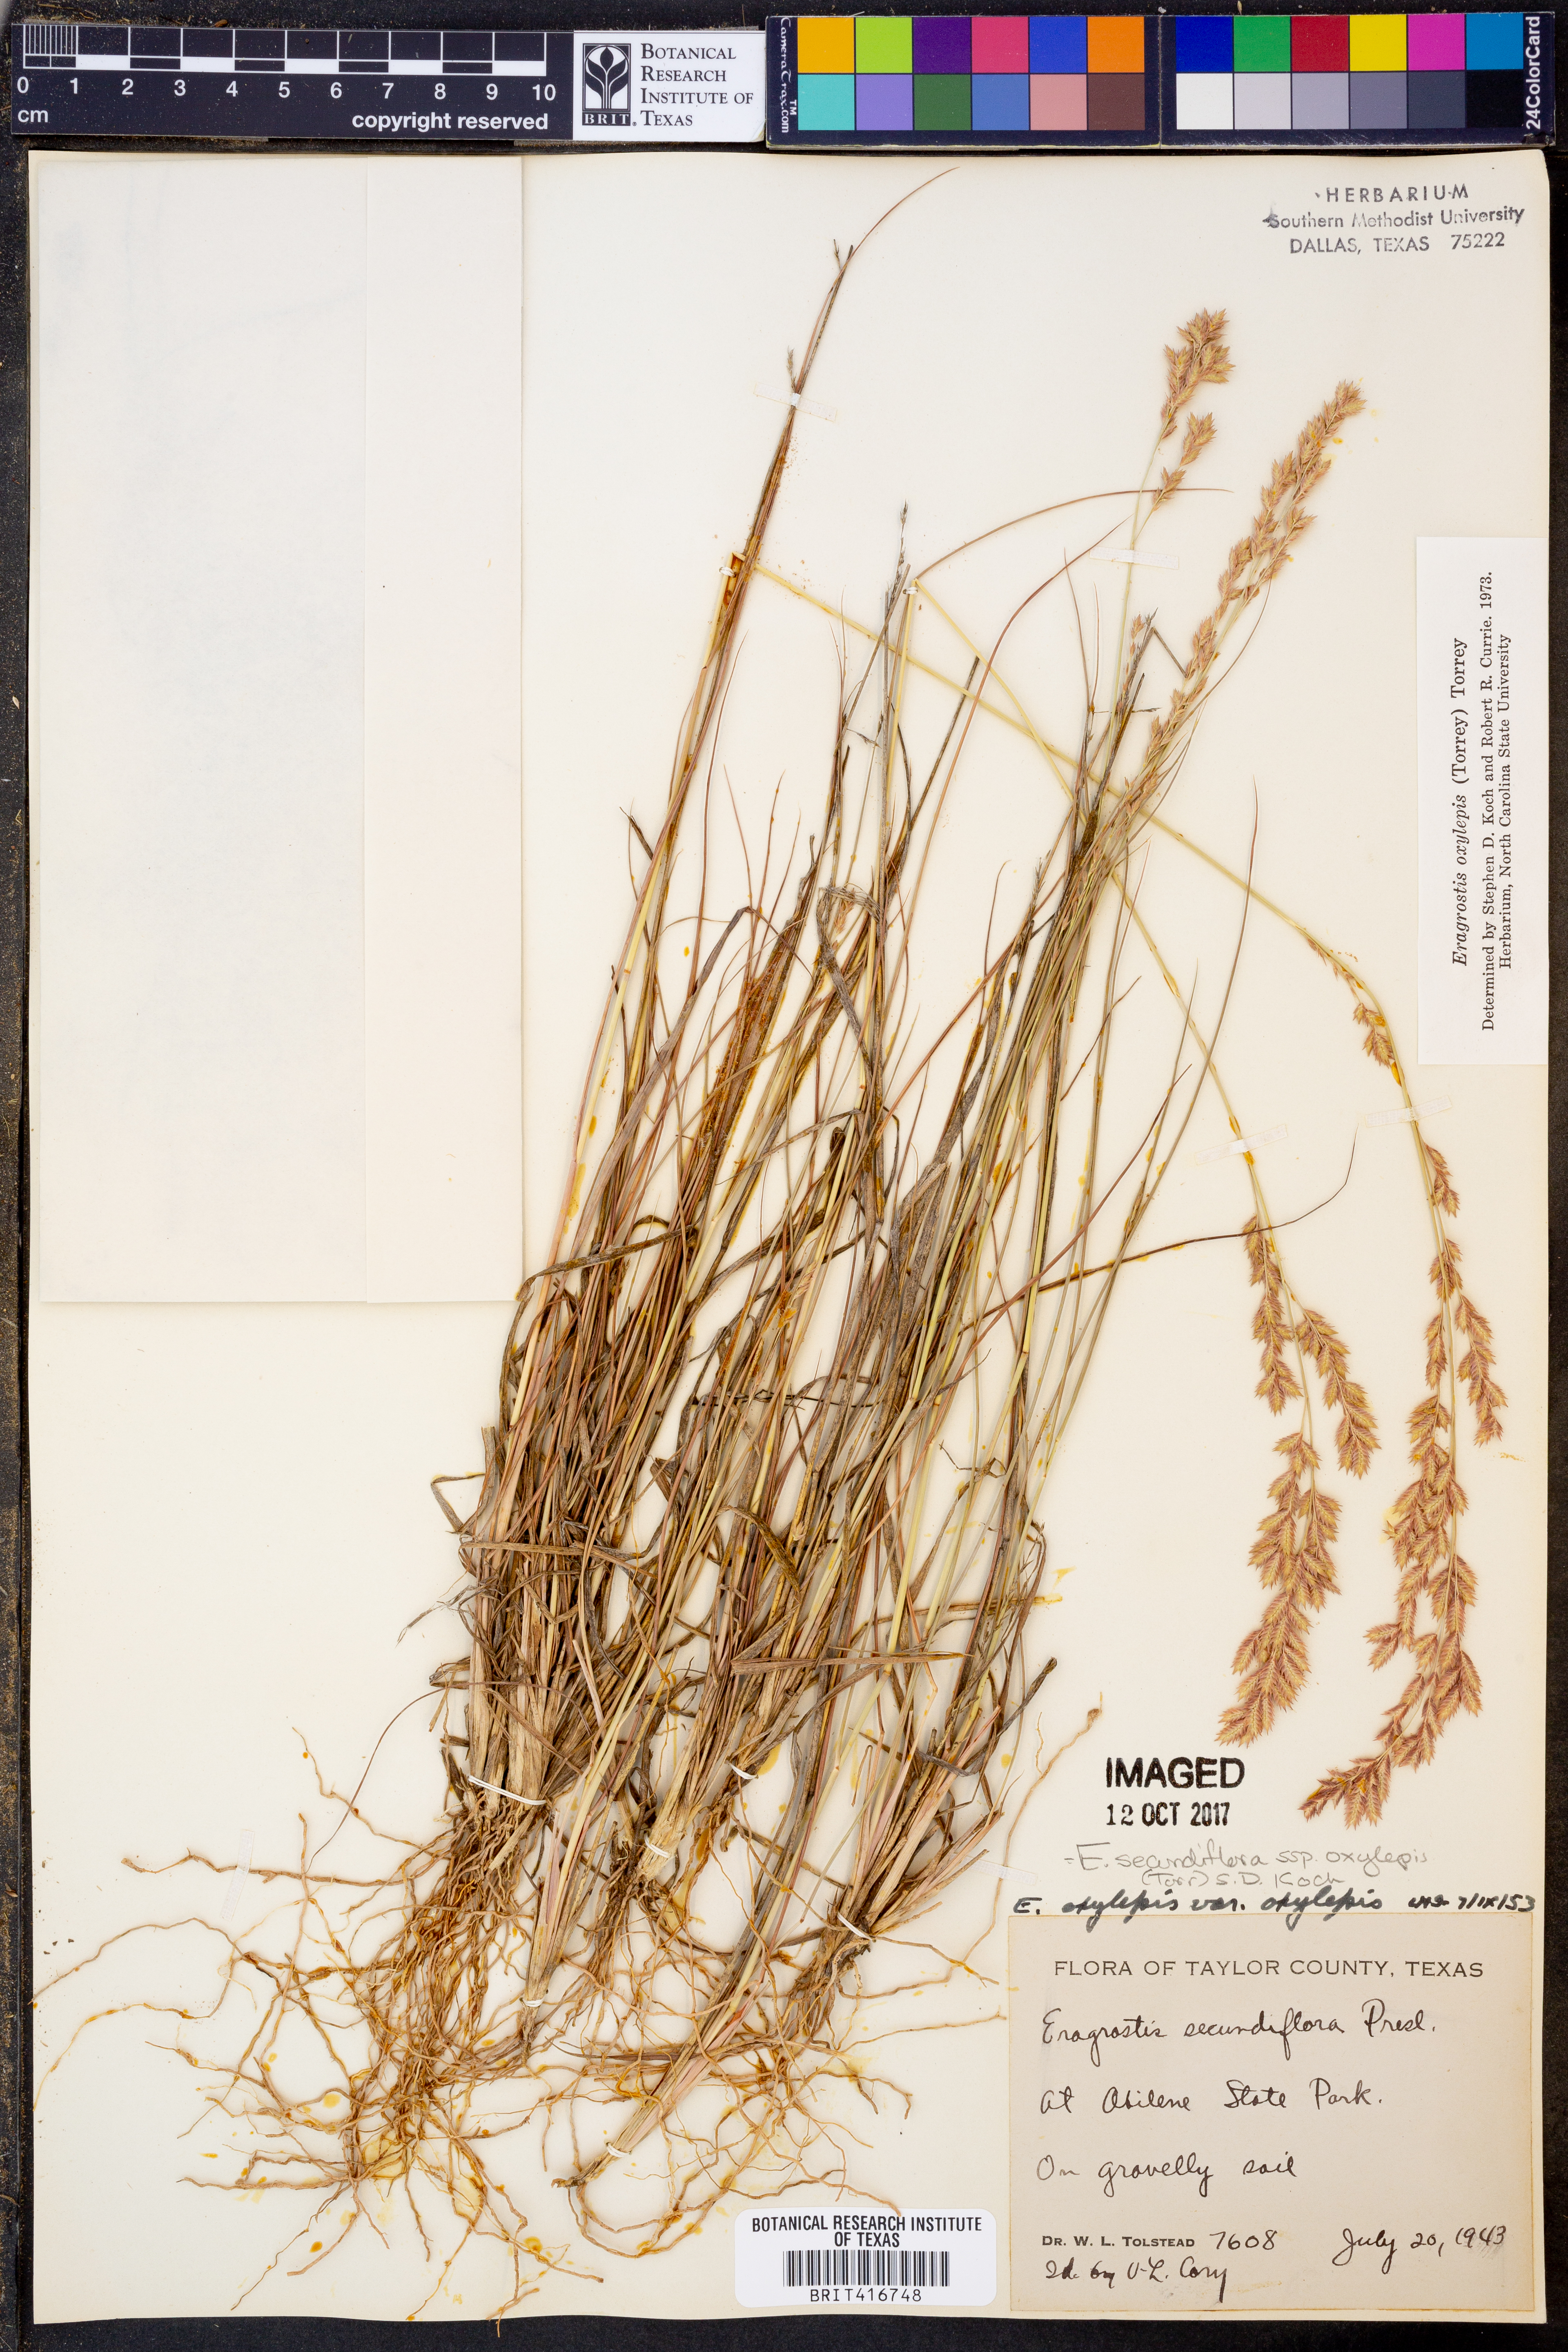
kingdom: Plantae
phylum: Tracheophyta
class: Liliopsida
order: Poales
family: Poaceae
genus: Eragrostis
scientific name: Eragrostis secundiflora
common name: Red love grass
